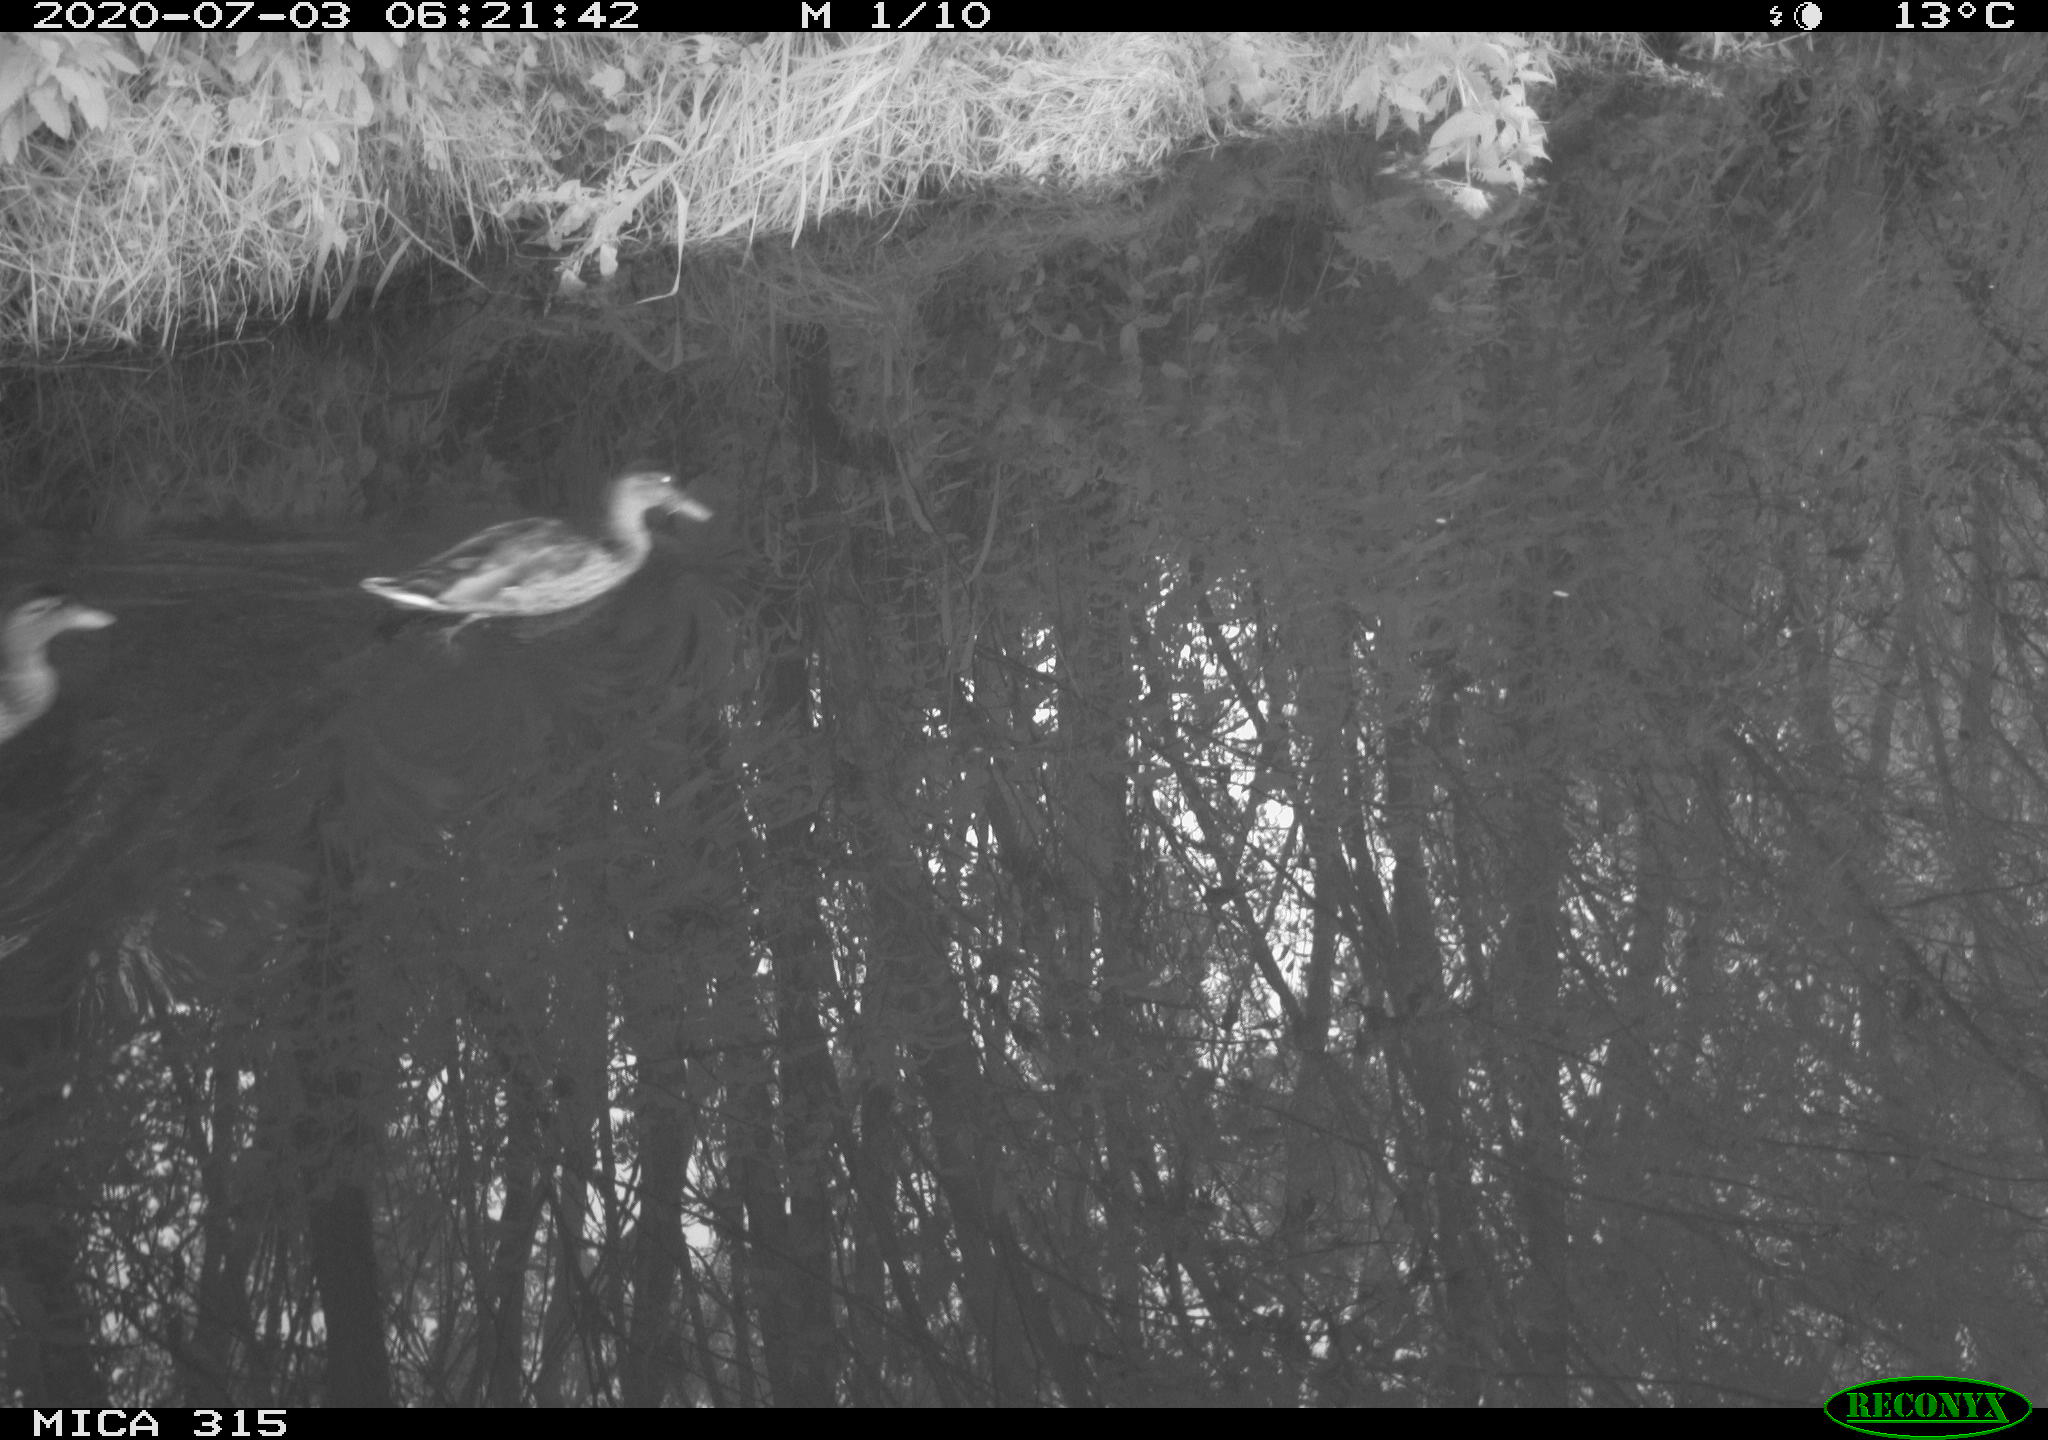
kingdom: Animalia
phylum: Chordata
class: Aves
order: Anseriformes
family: Anatidae
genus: Anas
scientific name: Anas platyrhynchos
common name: Mallard
